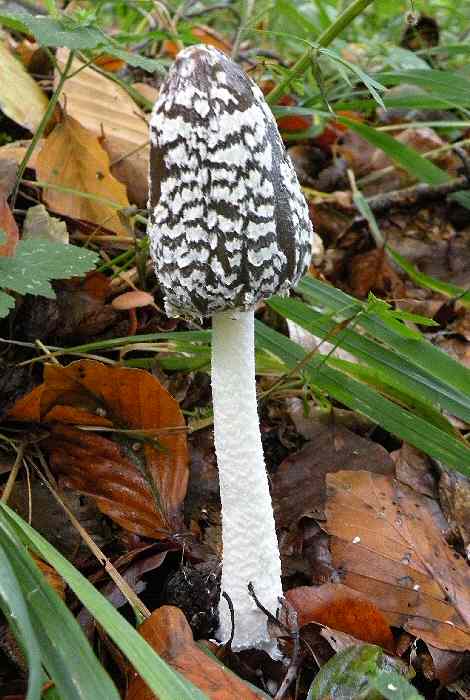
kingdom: Fungi
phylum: Basidiomycota
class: Agaricomycetes
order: Agaricales
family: Psathyrellaceae
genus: Coprinopsis
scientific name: Coprinopsis picacea
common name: skade-blækhat
